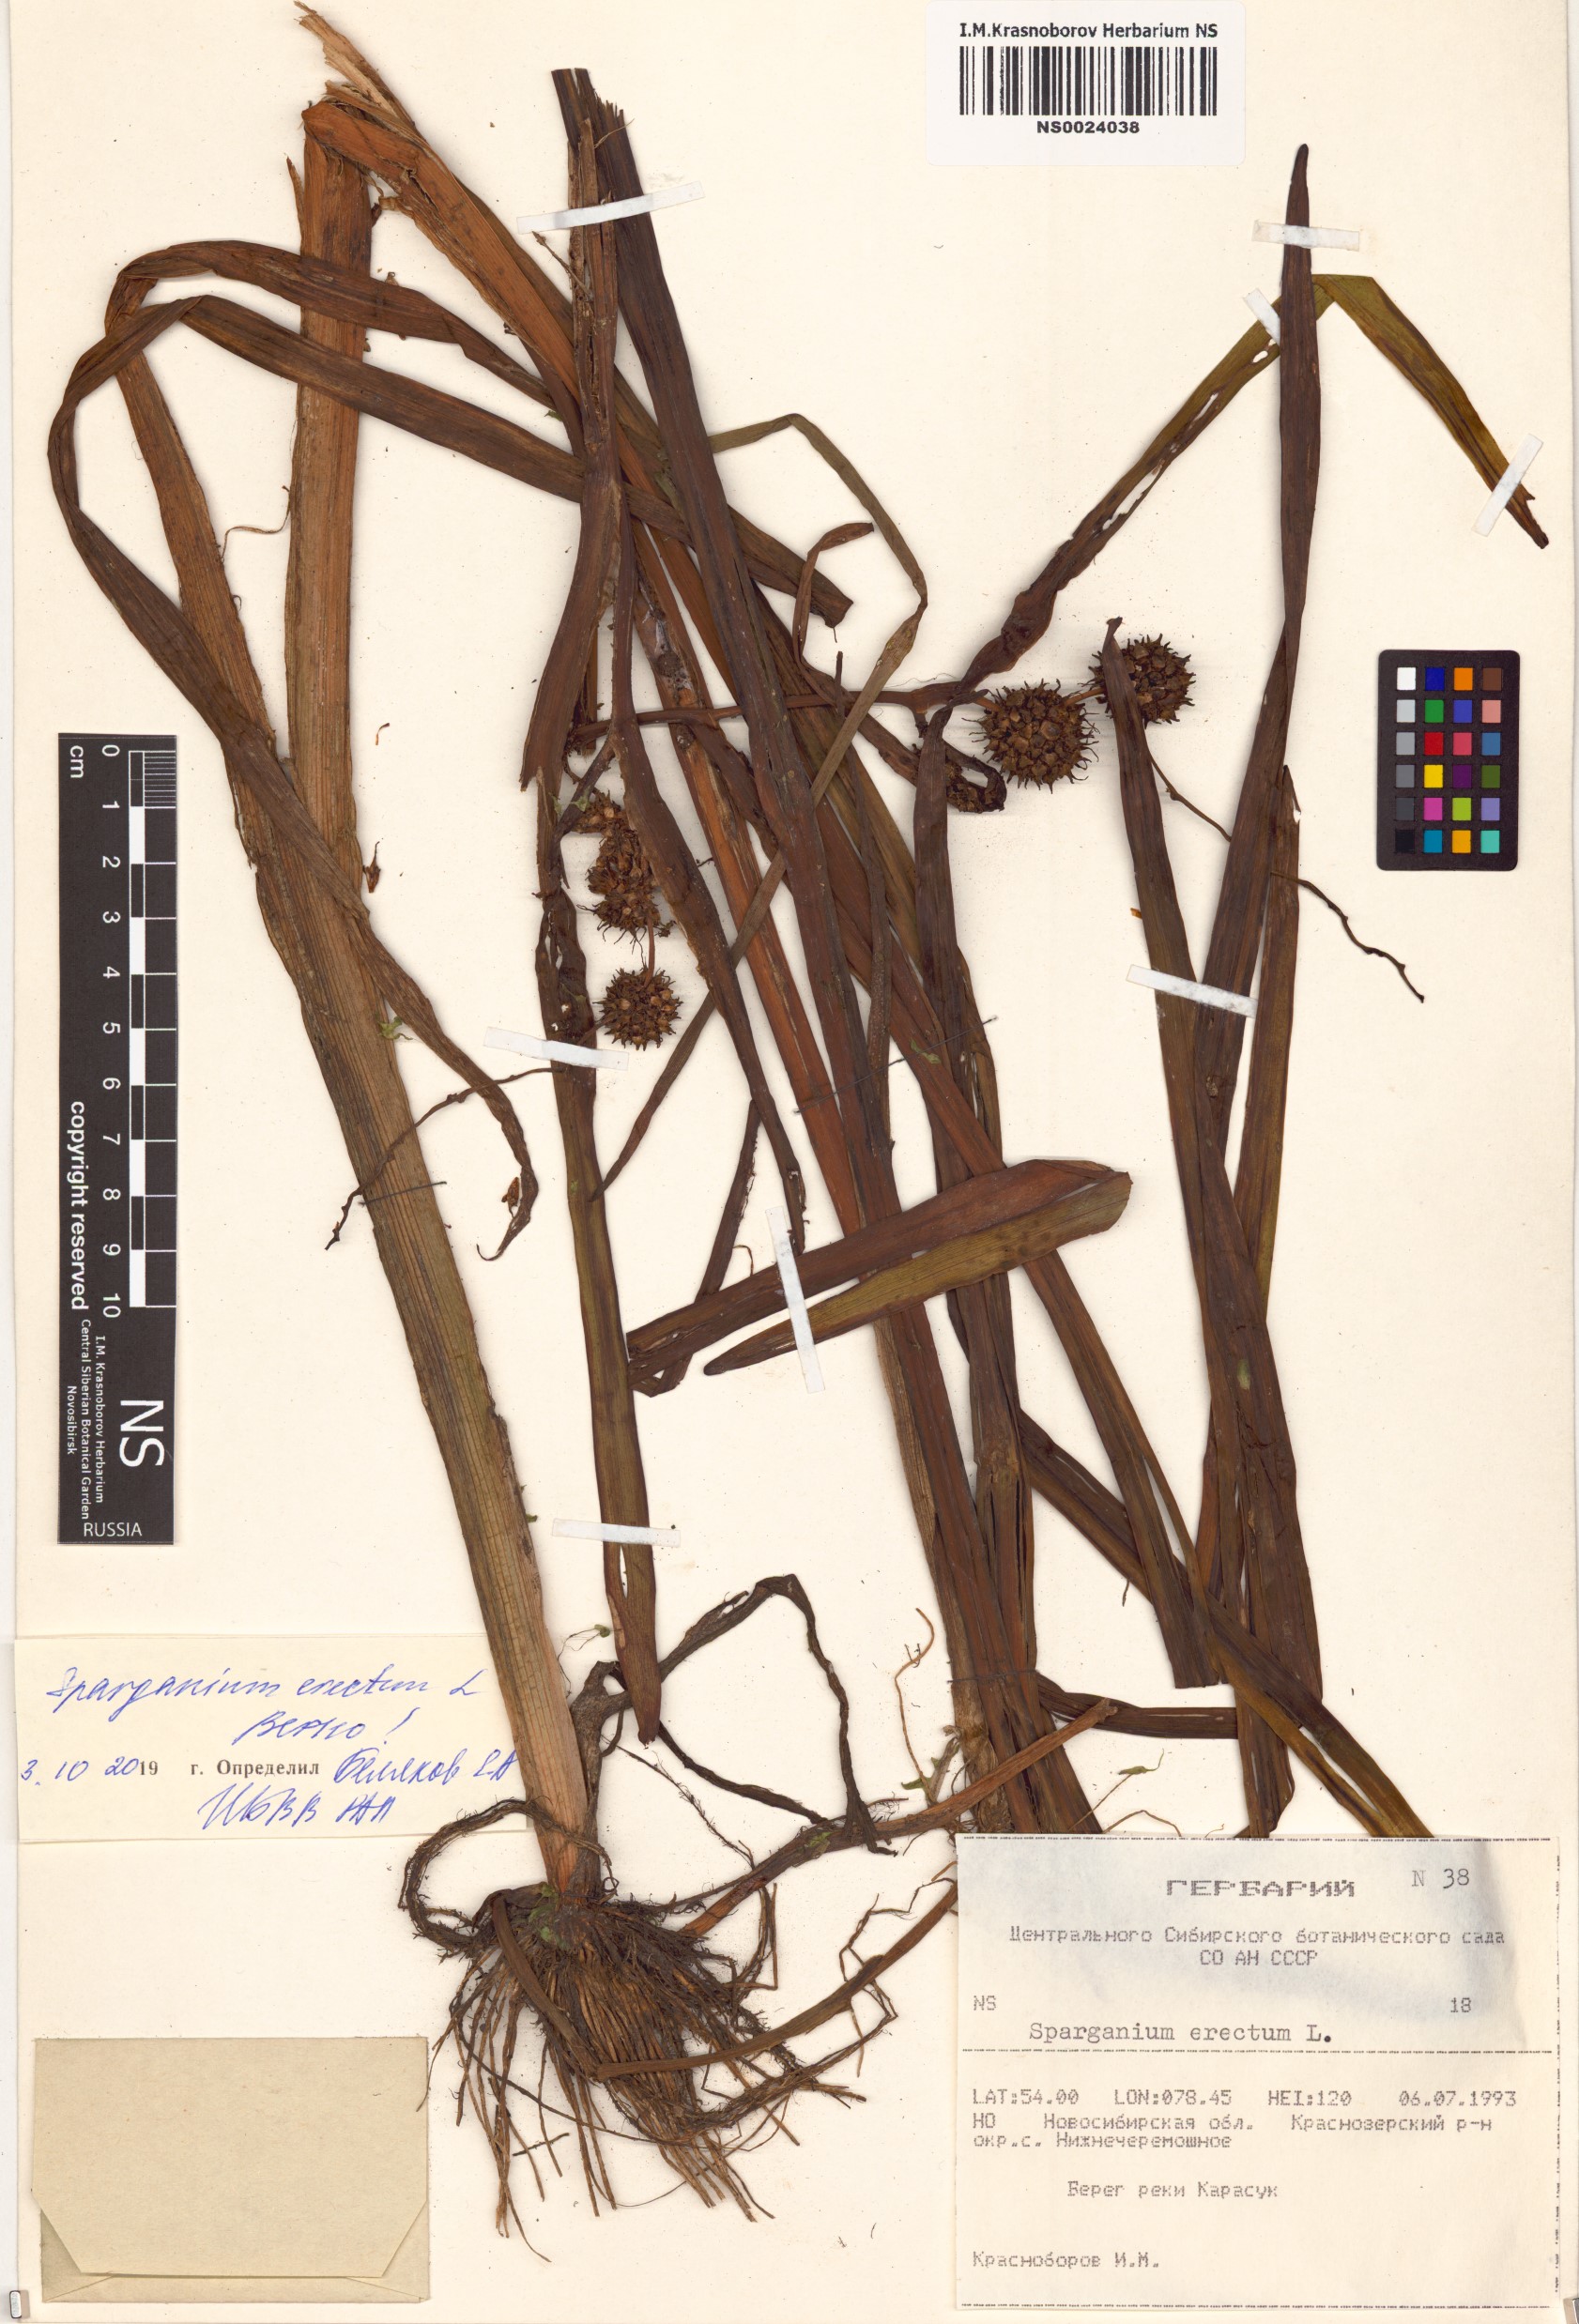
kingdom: Plantae
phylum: Tracheophyta
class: Liliopsida
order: Poales
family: Typhaceae
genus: Sparganium
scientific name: Sparganium erectum
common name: Branched bur-reed
